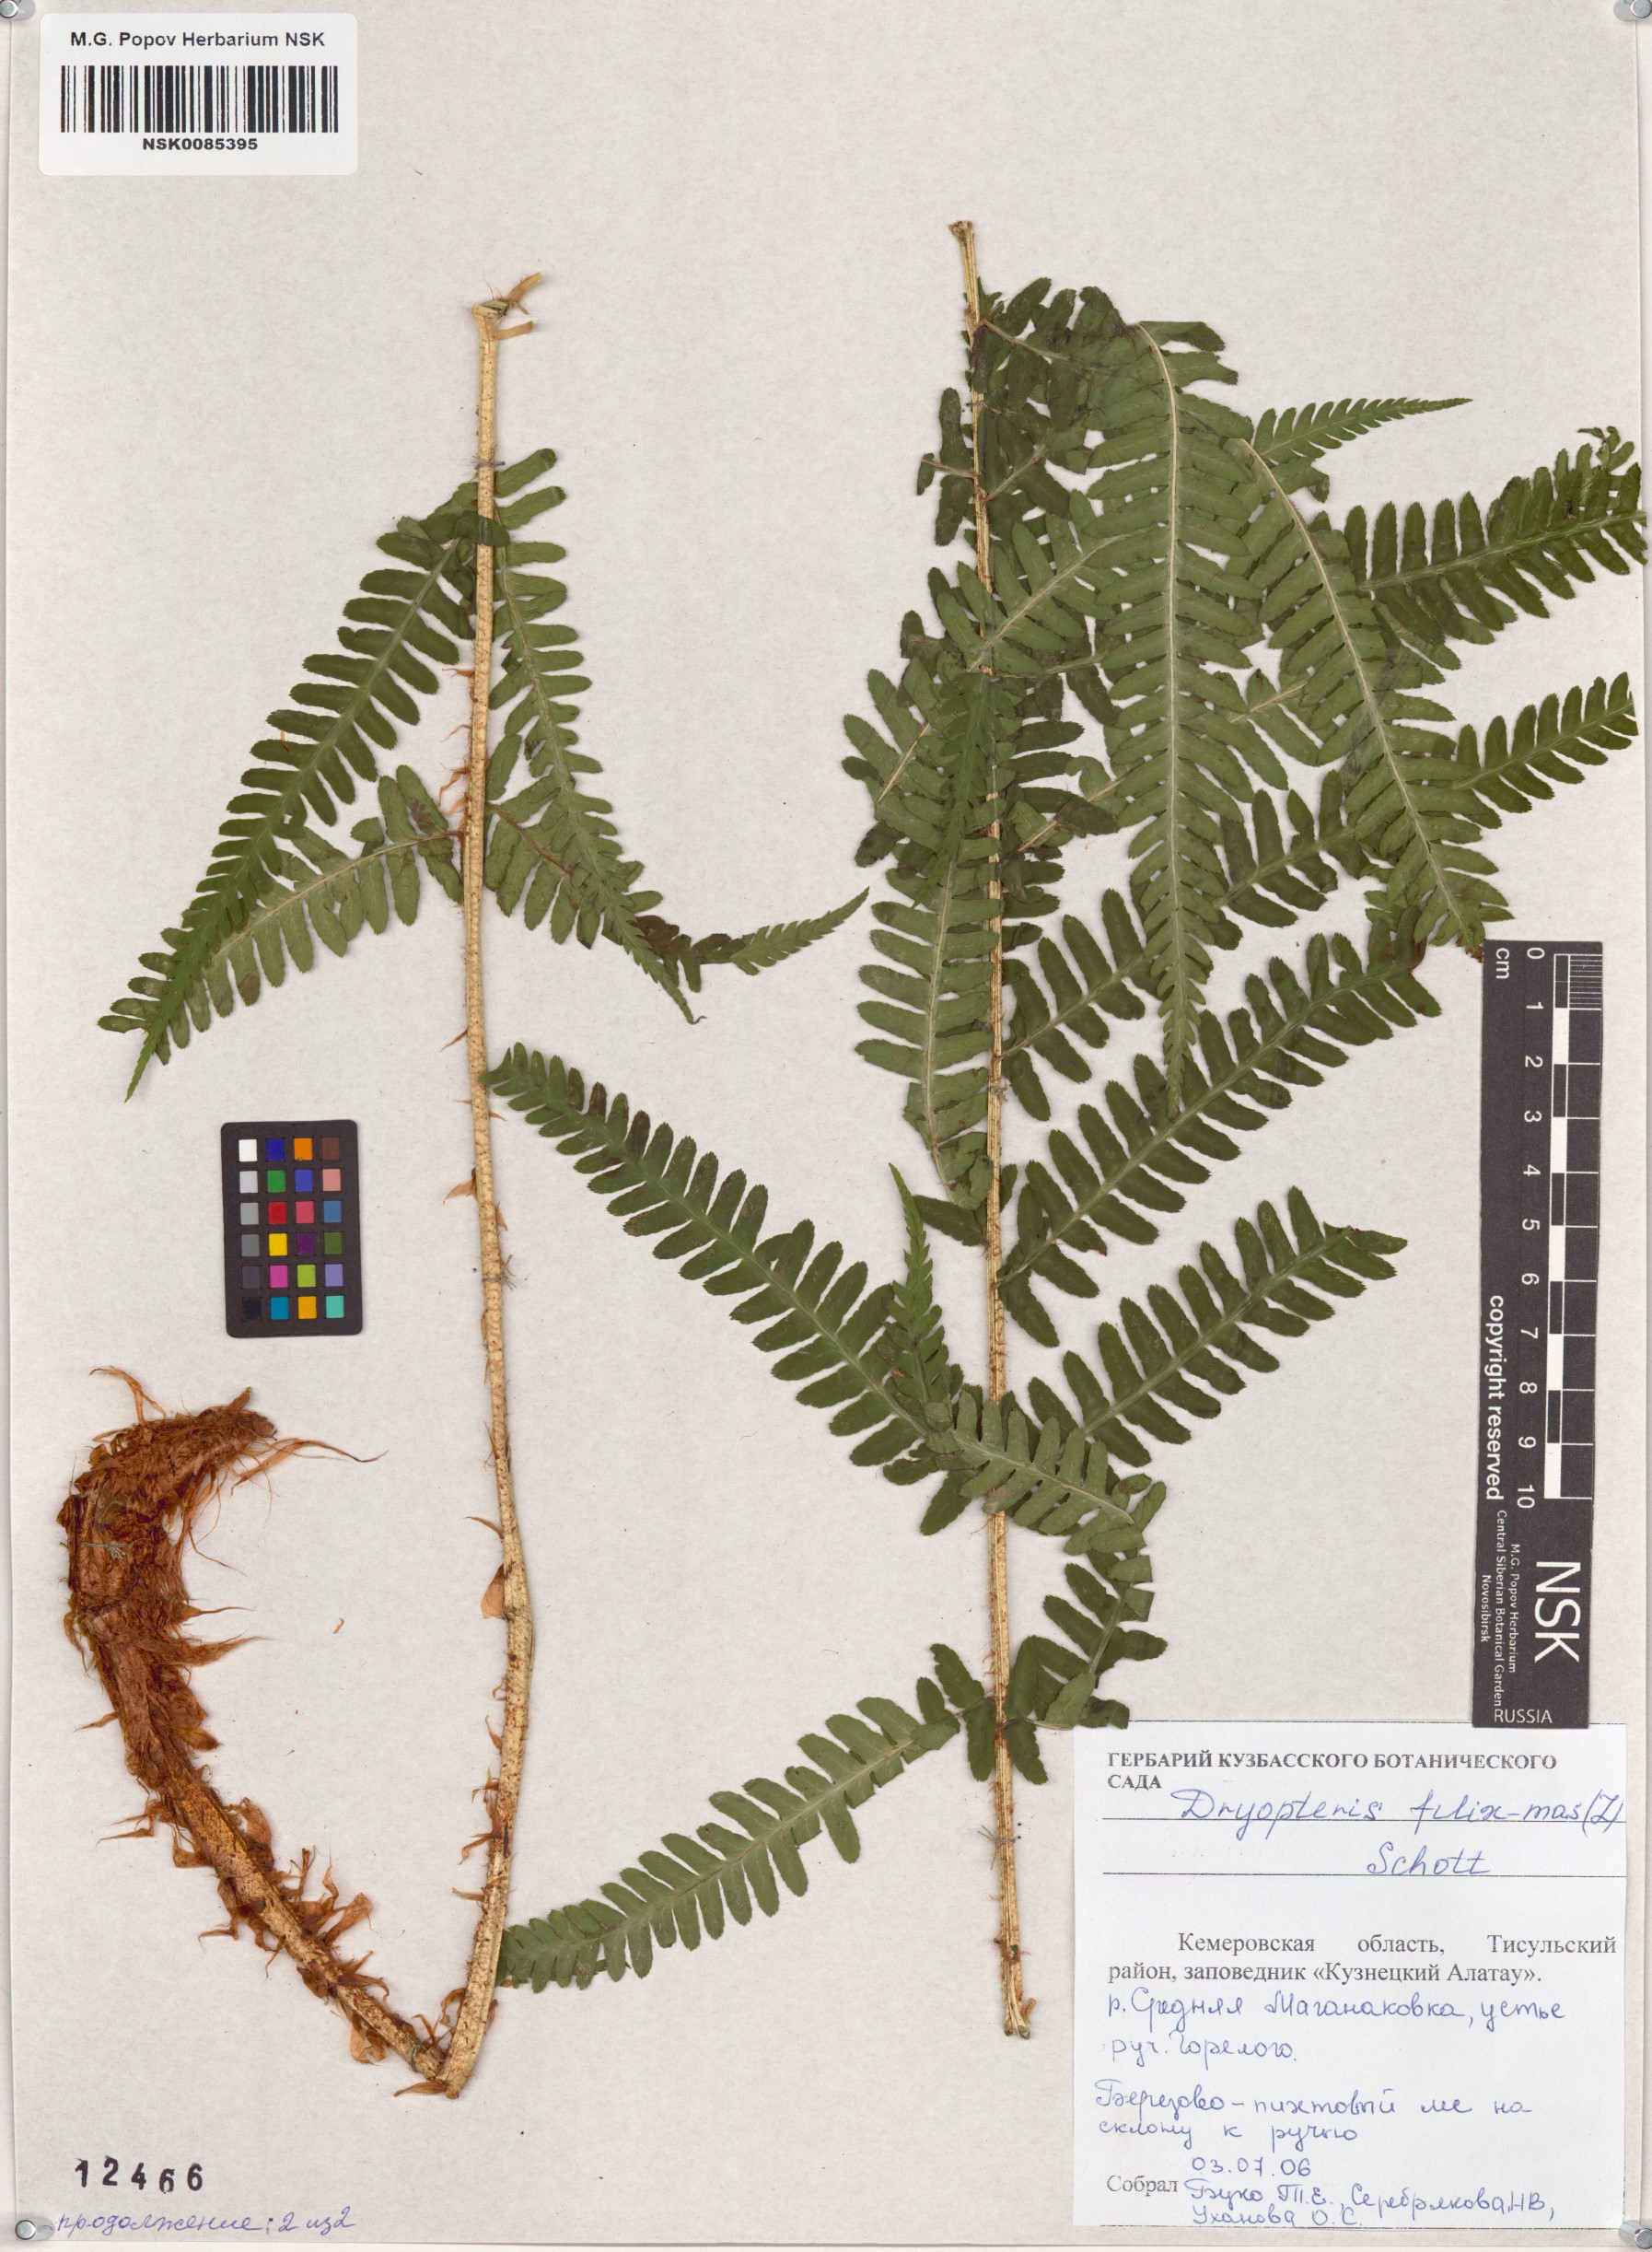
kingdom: Plantae
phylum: Tracheophyta
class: Polypodiopsida
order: Polypodiales
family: Dryopteridaceae
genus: Dryopteris
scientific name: Dryopteris filix-mas
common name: Male fern
